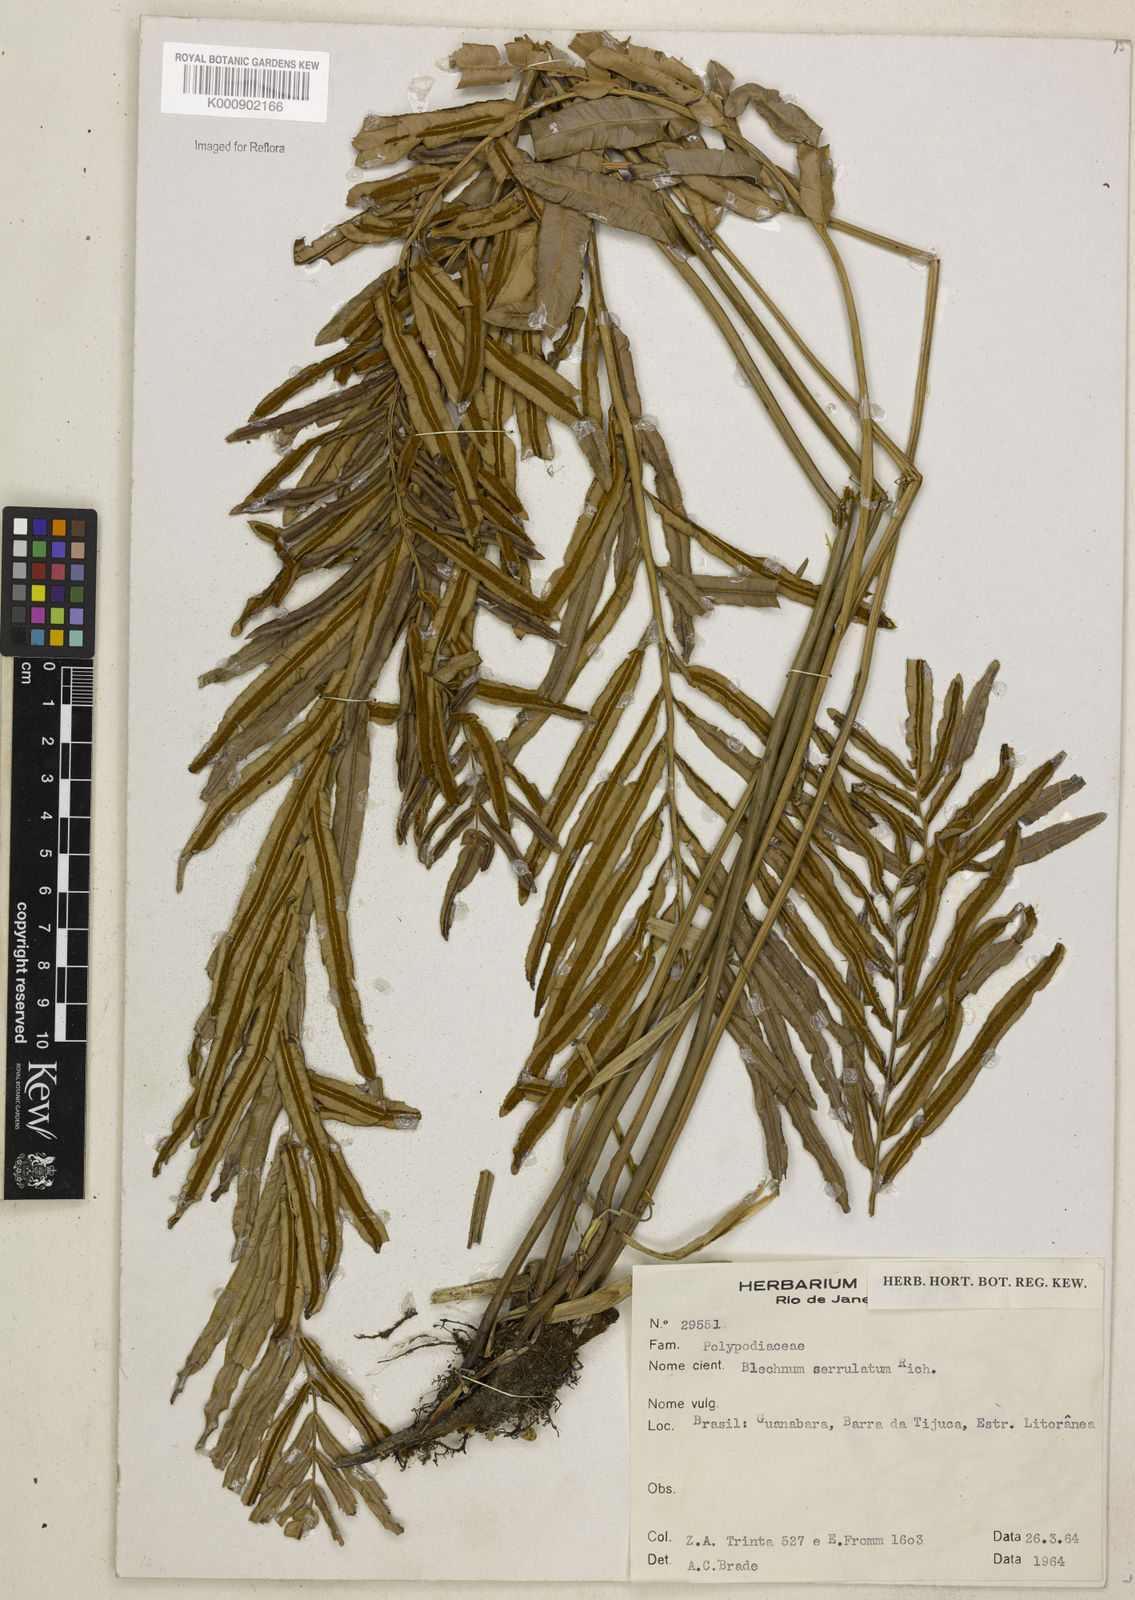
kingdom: Plantae
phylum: Tracheophyta
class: Polypodiopsida
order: Polypodiales
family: Blechnaceae
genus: Telmatoblechnum
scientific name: Telmatoblechnum serrulatum
